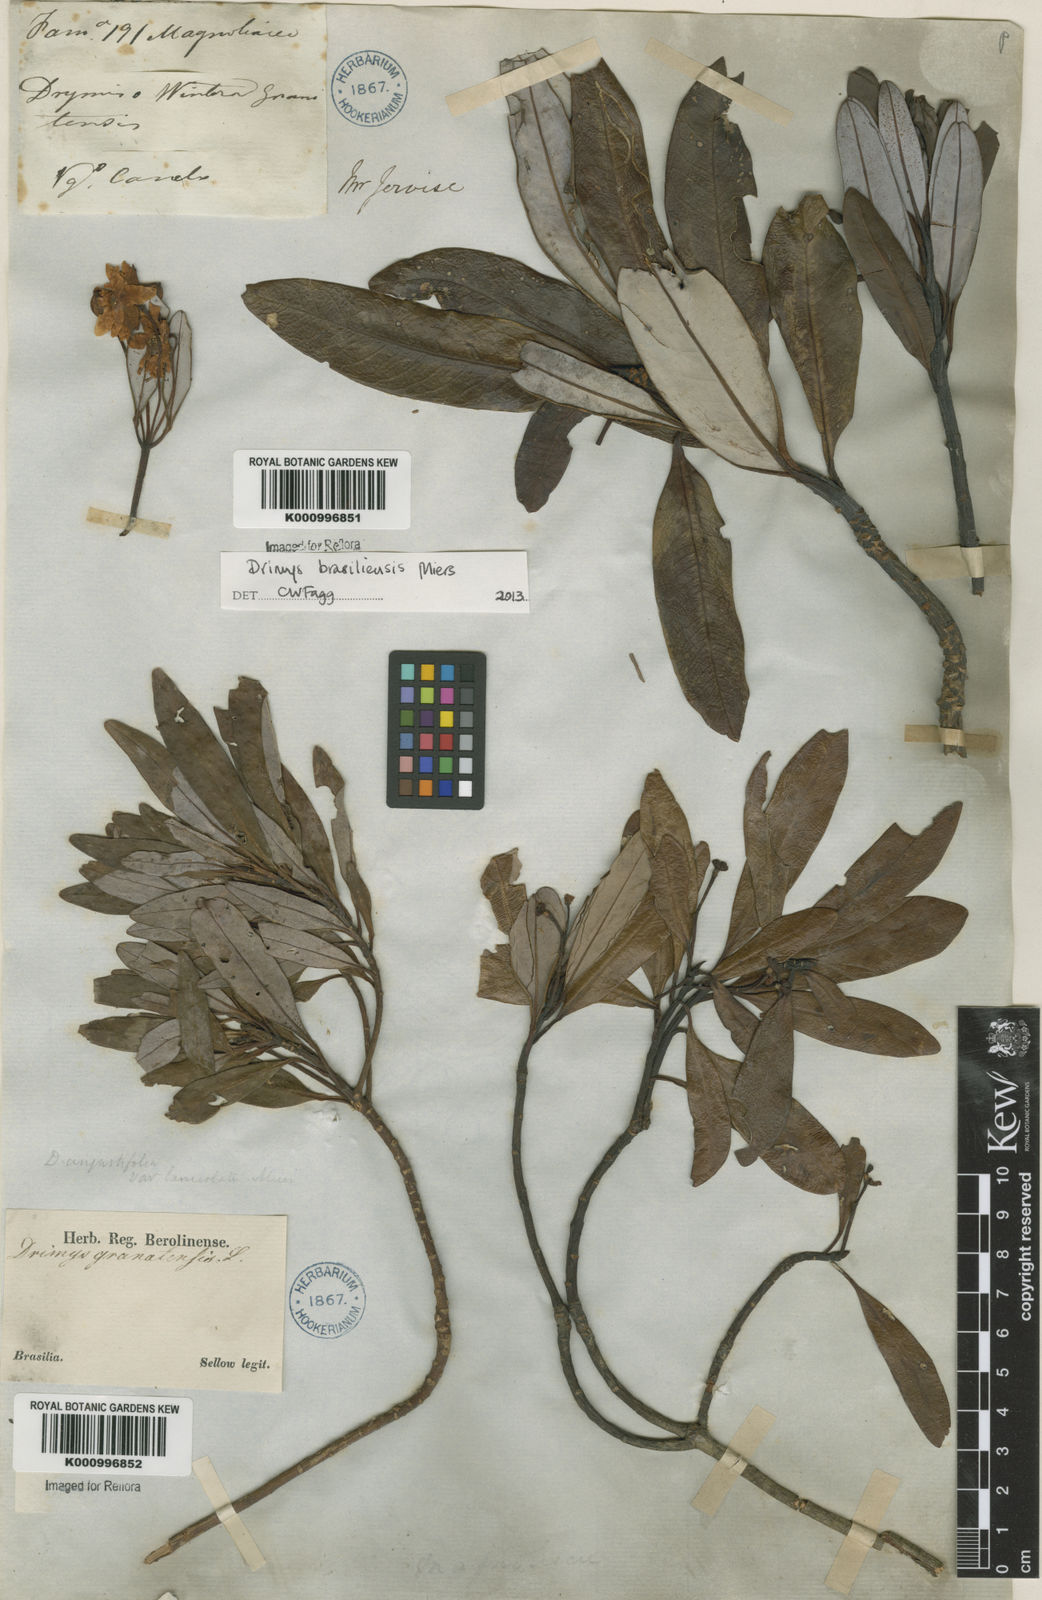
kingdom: Plantae
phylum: Tracheophyta
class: Magnoliopsida
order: Canellales
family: Winteraceae
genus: Drimys
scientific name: Drimys brasiliensis
